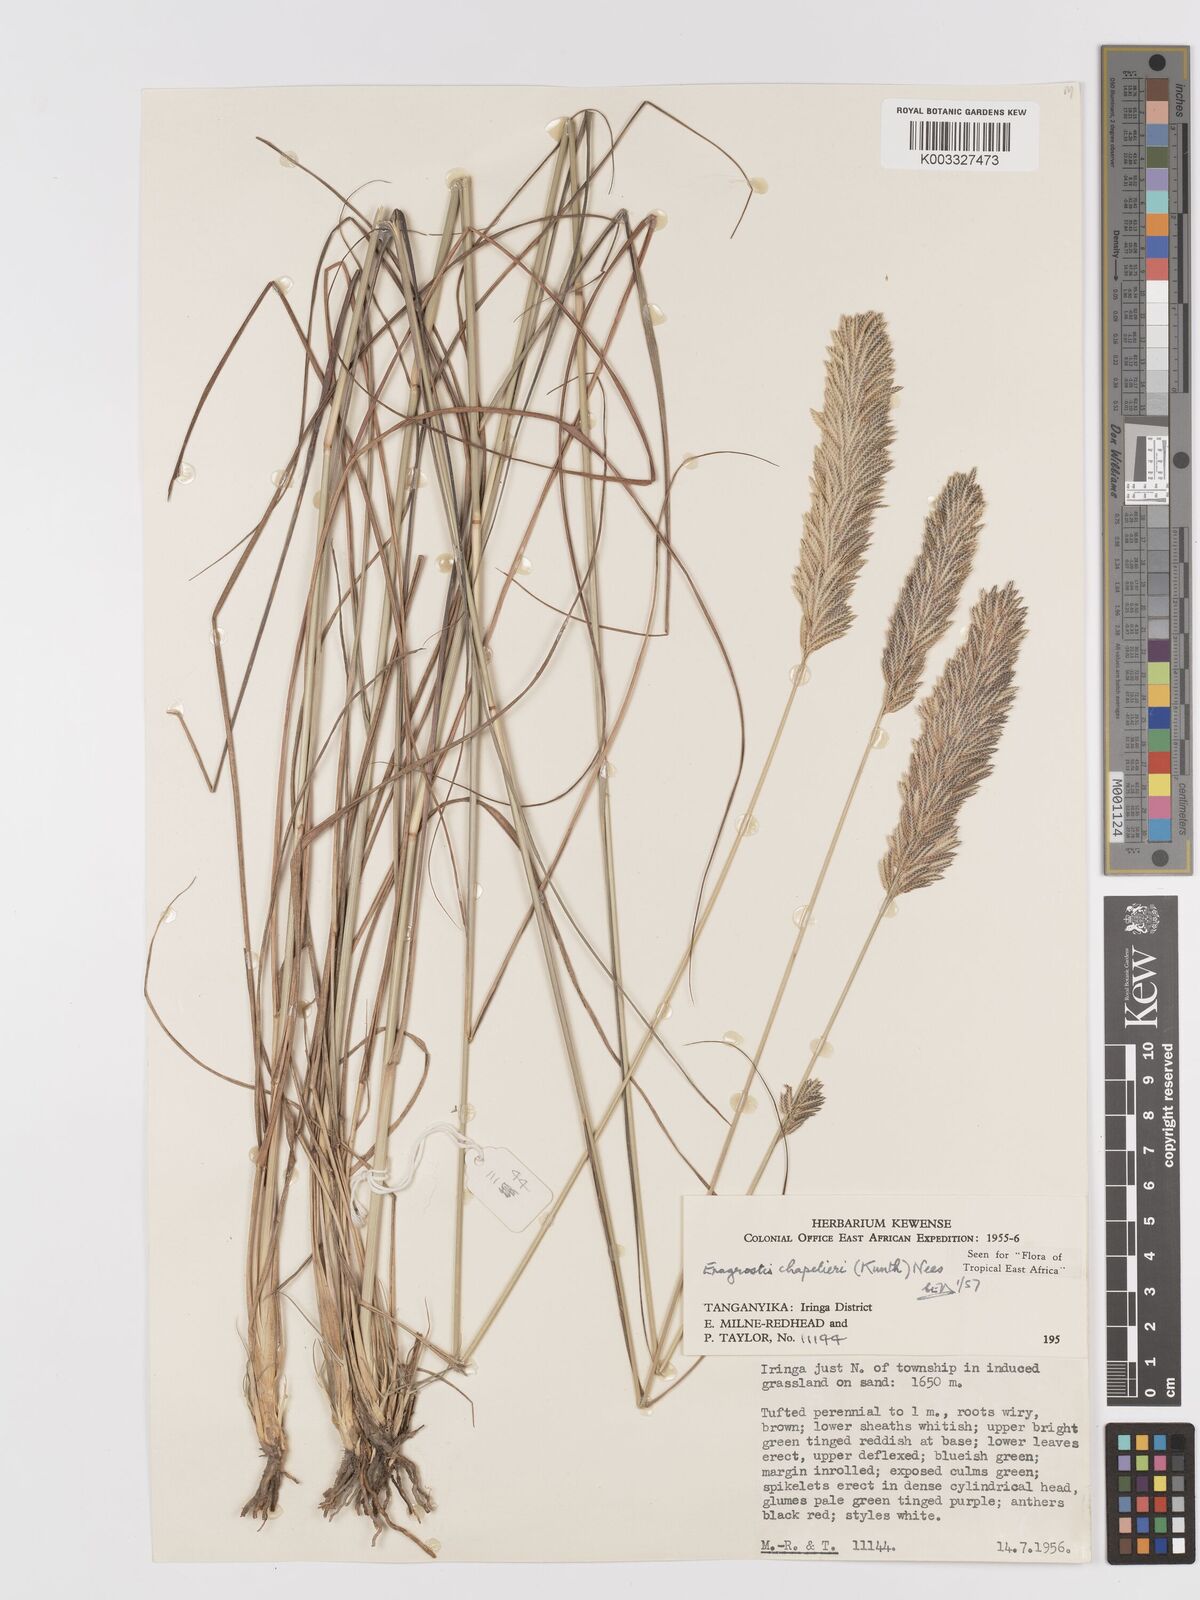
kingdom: Plantae
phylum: Tracheophyta
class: Liliopsida
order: Poales
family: Poaceae
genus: Eragrostis
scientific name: Eragrostis chapelieri
